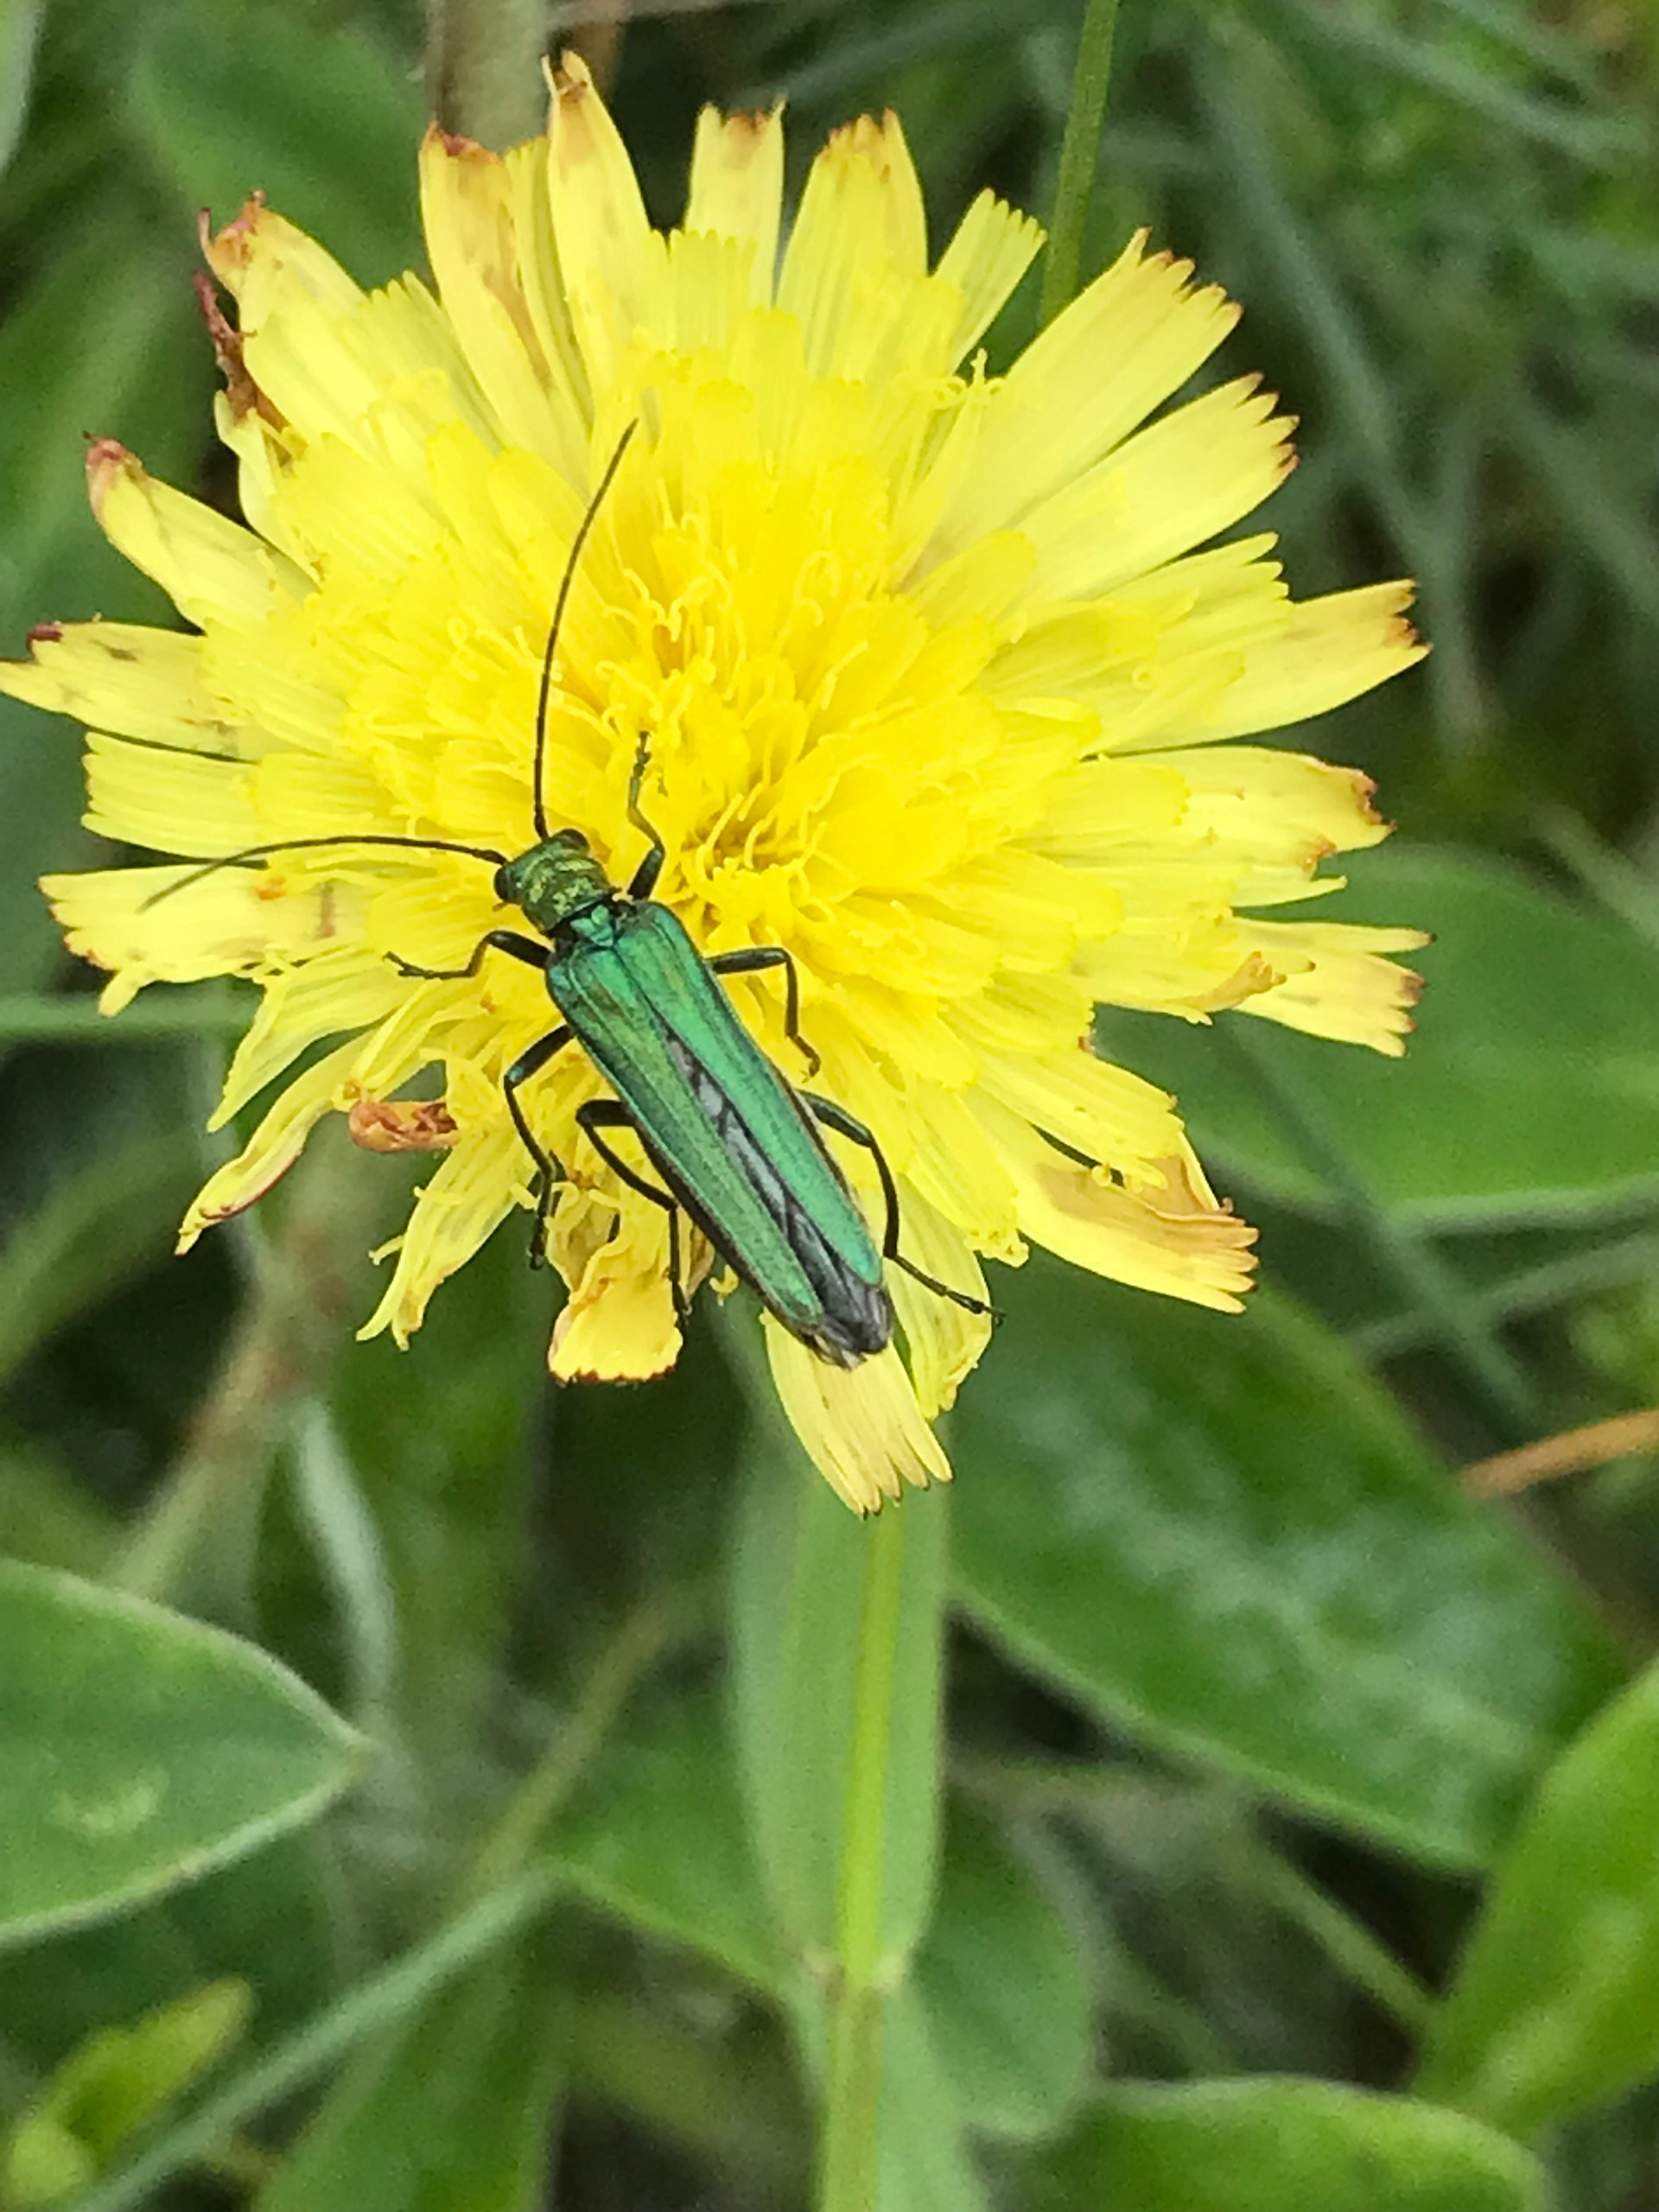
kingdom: Animalia
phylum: Arthropoda
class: Insecta
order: Coleoptera
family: Oedemeridae
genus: Oedemera
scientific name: Oedemera nobilis
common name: Tyklårssolbille
